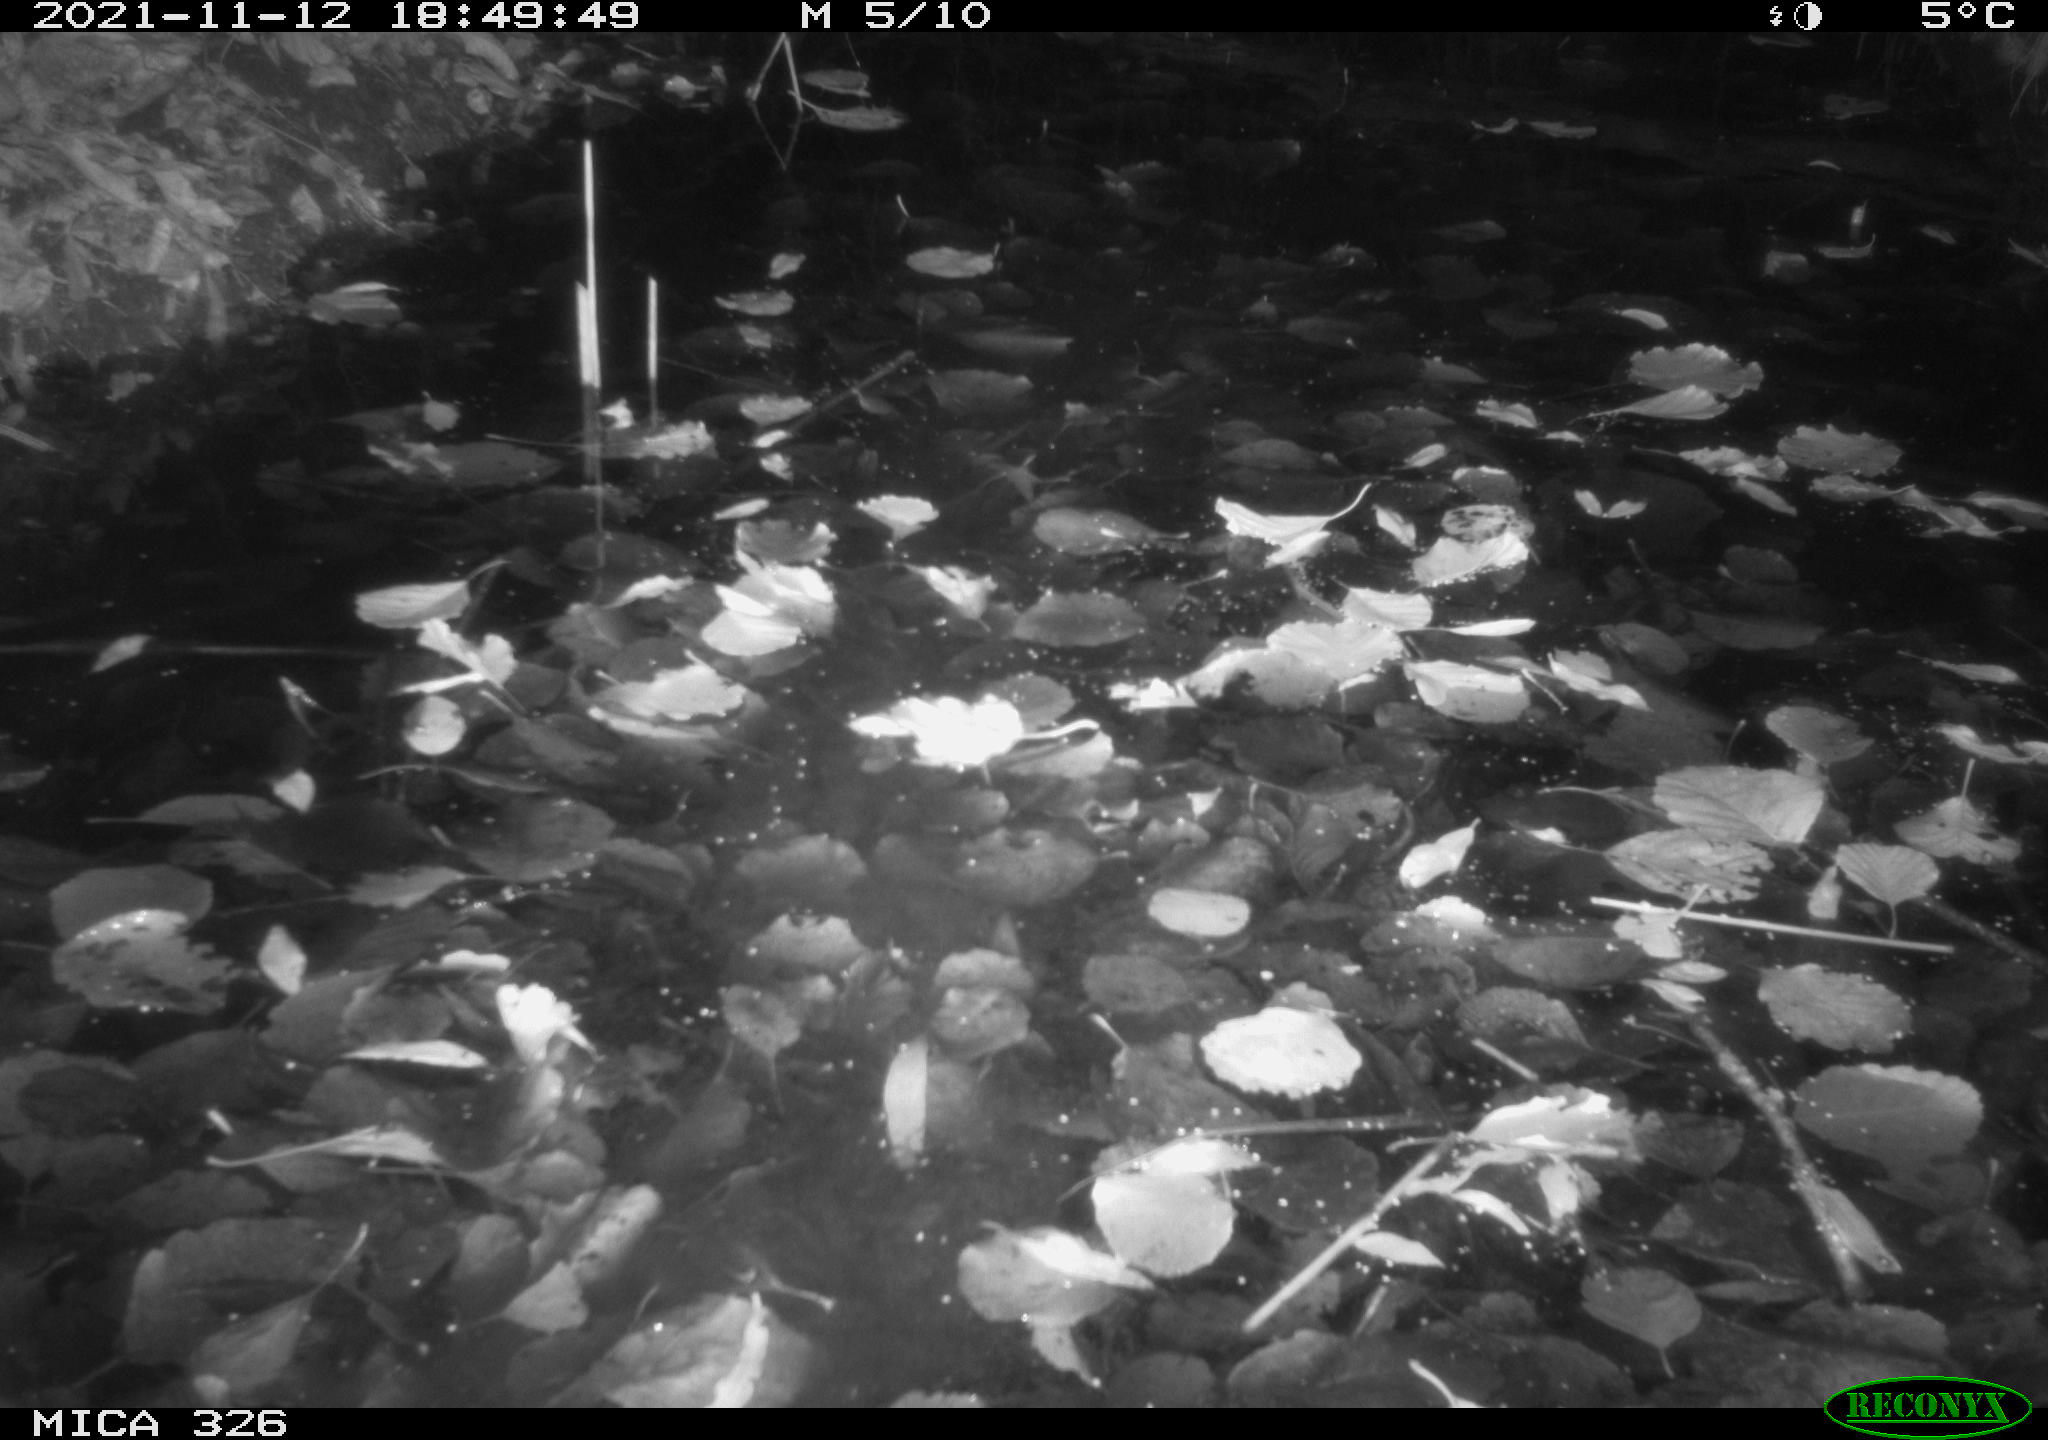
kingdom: Animalia
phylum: Chordata
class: Mammalia
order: Rodentia
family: Myocastoridae
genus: Myocastor
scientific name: Myocastor coypus
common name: Coypu
